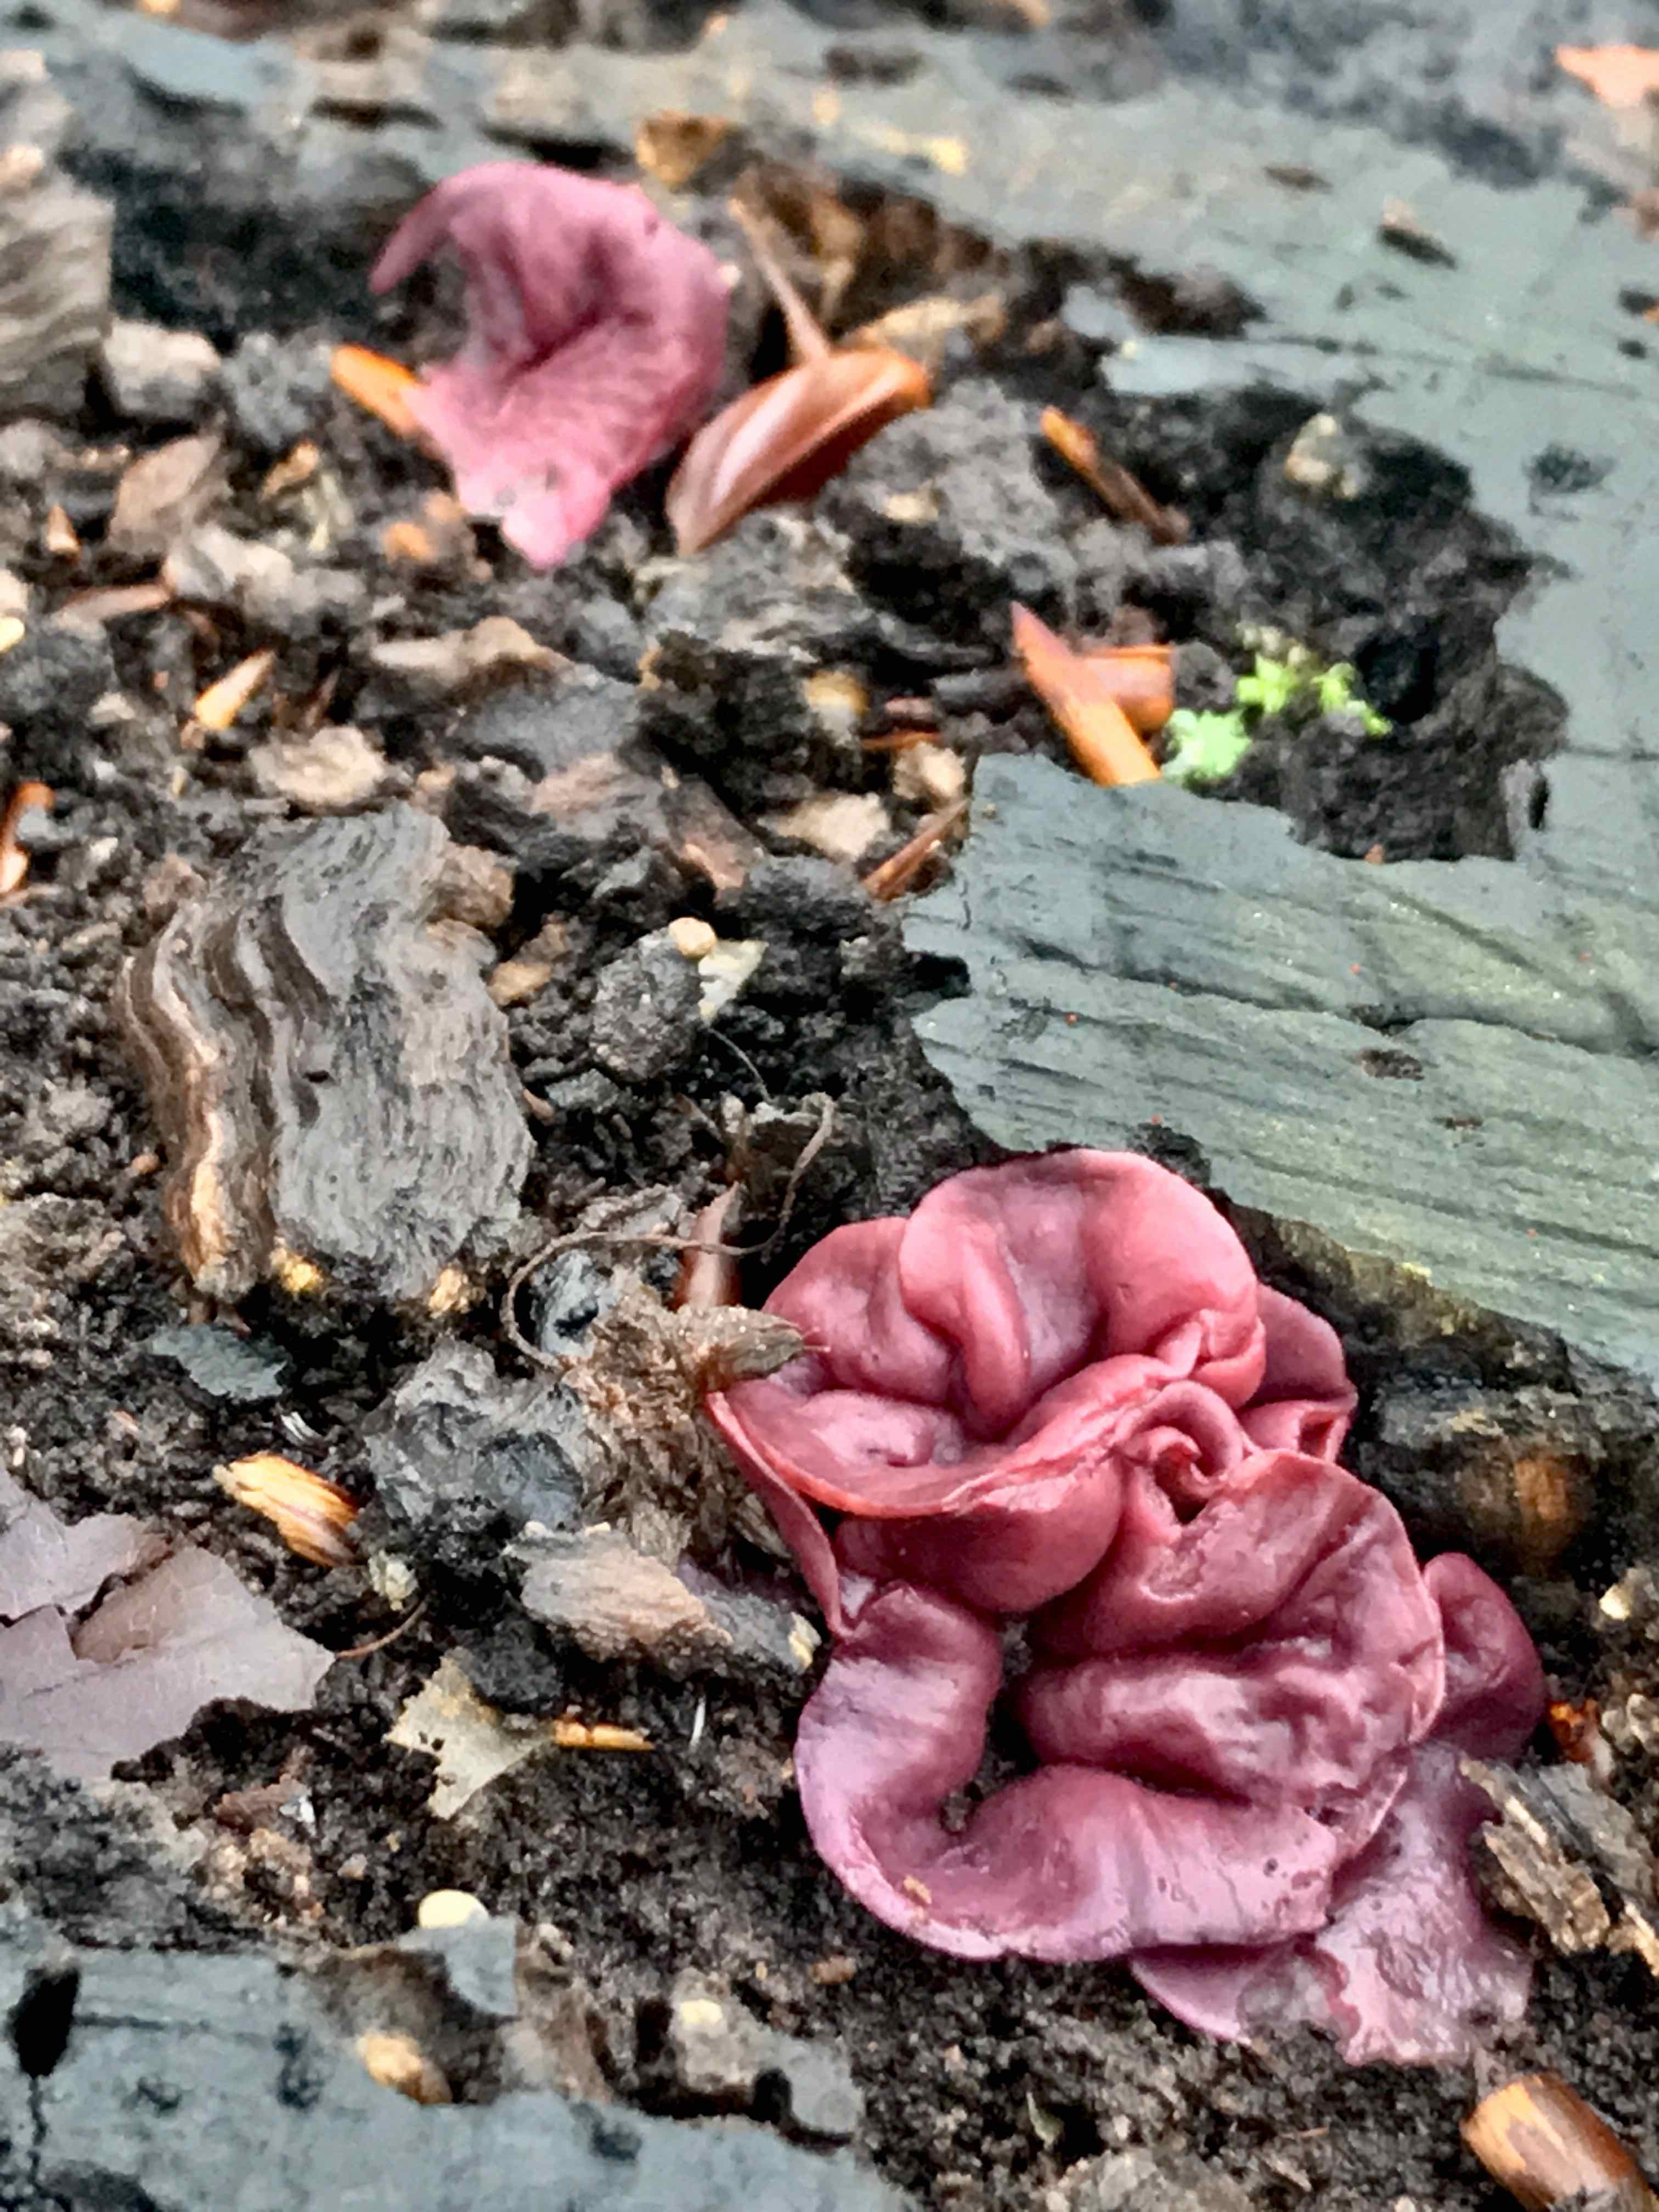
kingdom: Fungi
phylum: Ascomycota
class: Leotiomycetes
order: Helotiales
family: Gelatinodiscaceae
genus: Ascocoryne
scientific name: Ascocoryne cylichnium
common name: stor sejskive
